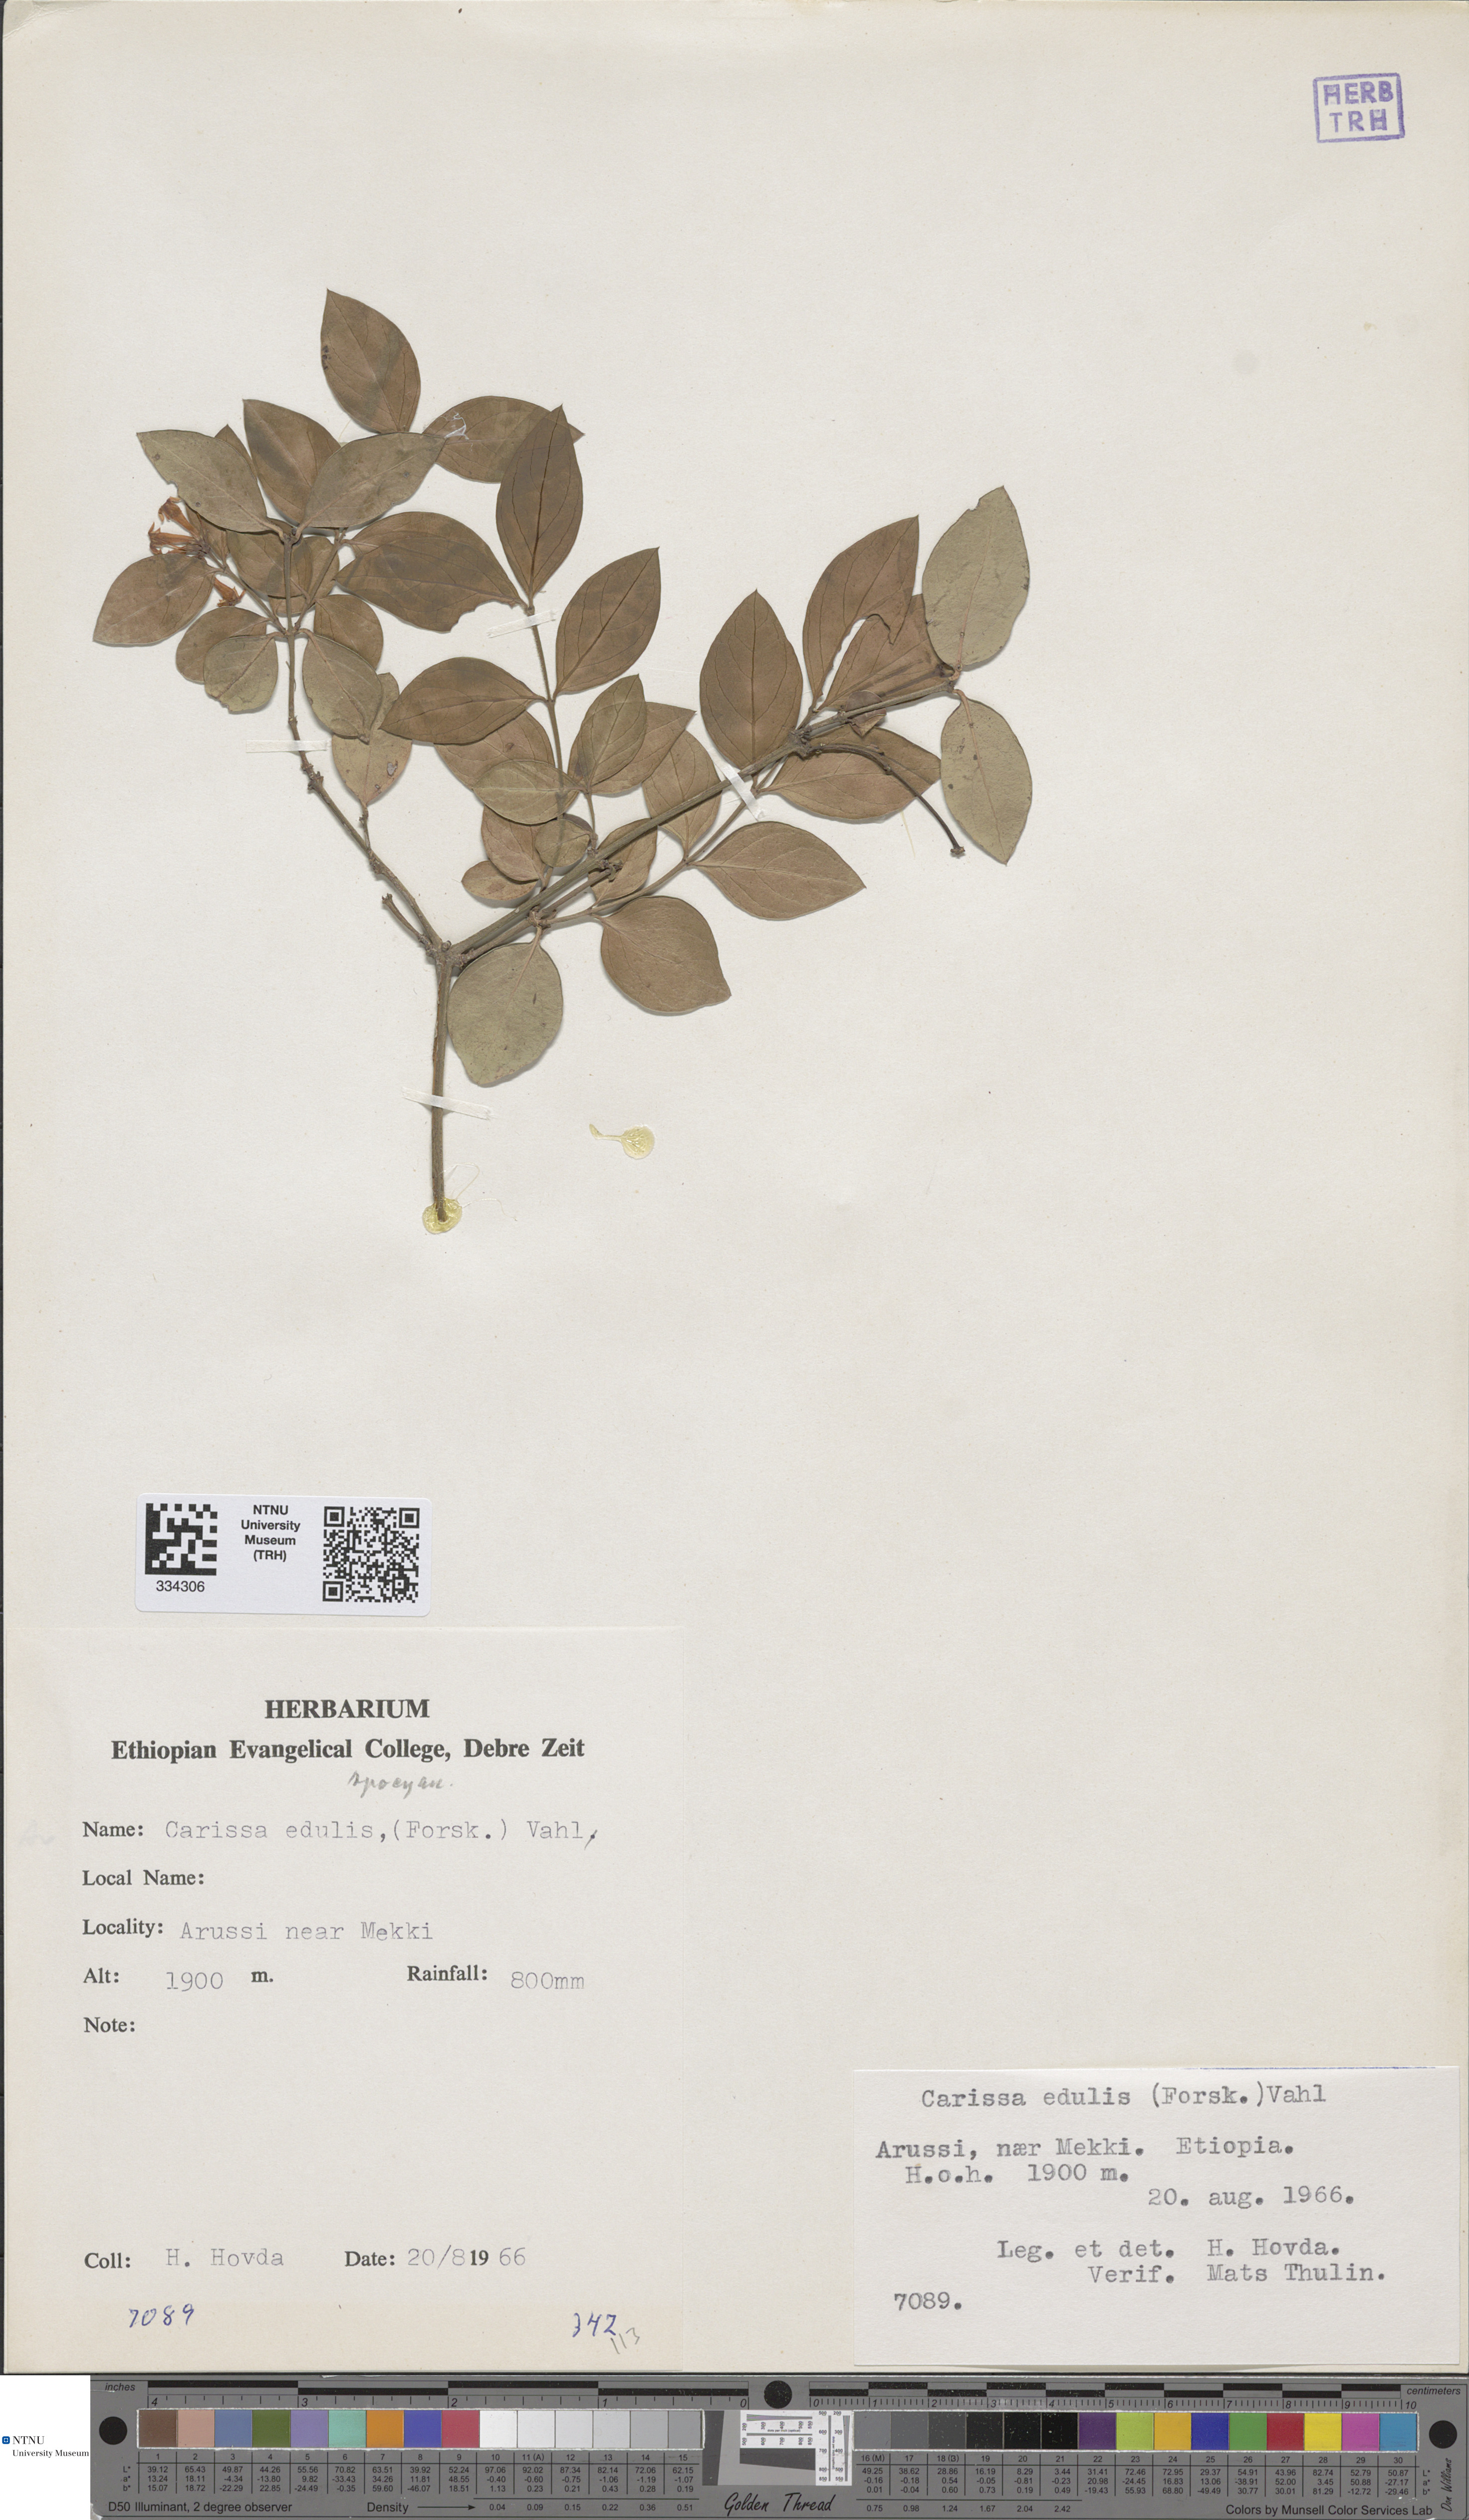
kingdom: Plantae
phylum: Tracheophyta
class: Magnoliopsida
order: Gentianales
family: Apocynaceae
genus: Carissa
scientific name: Carissa spinarum
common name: Egyptian carissa
